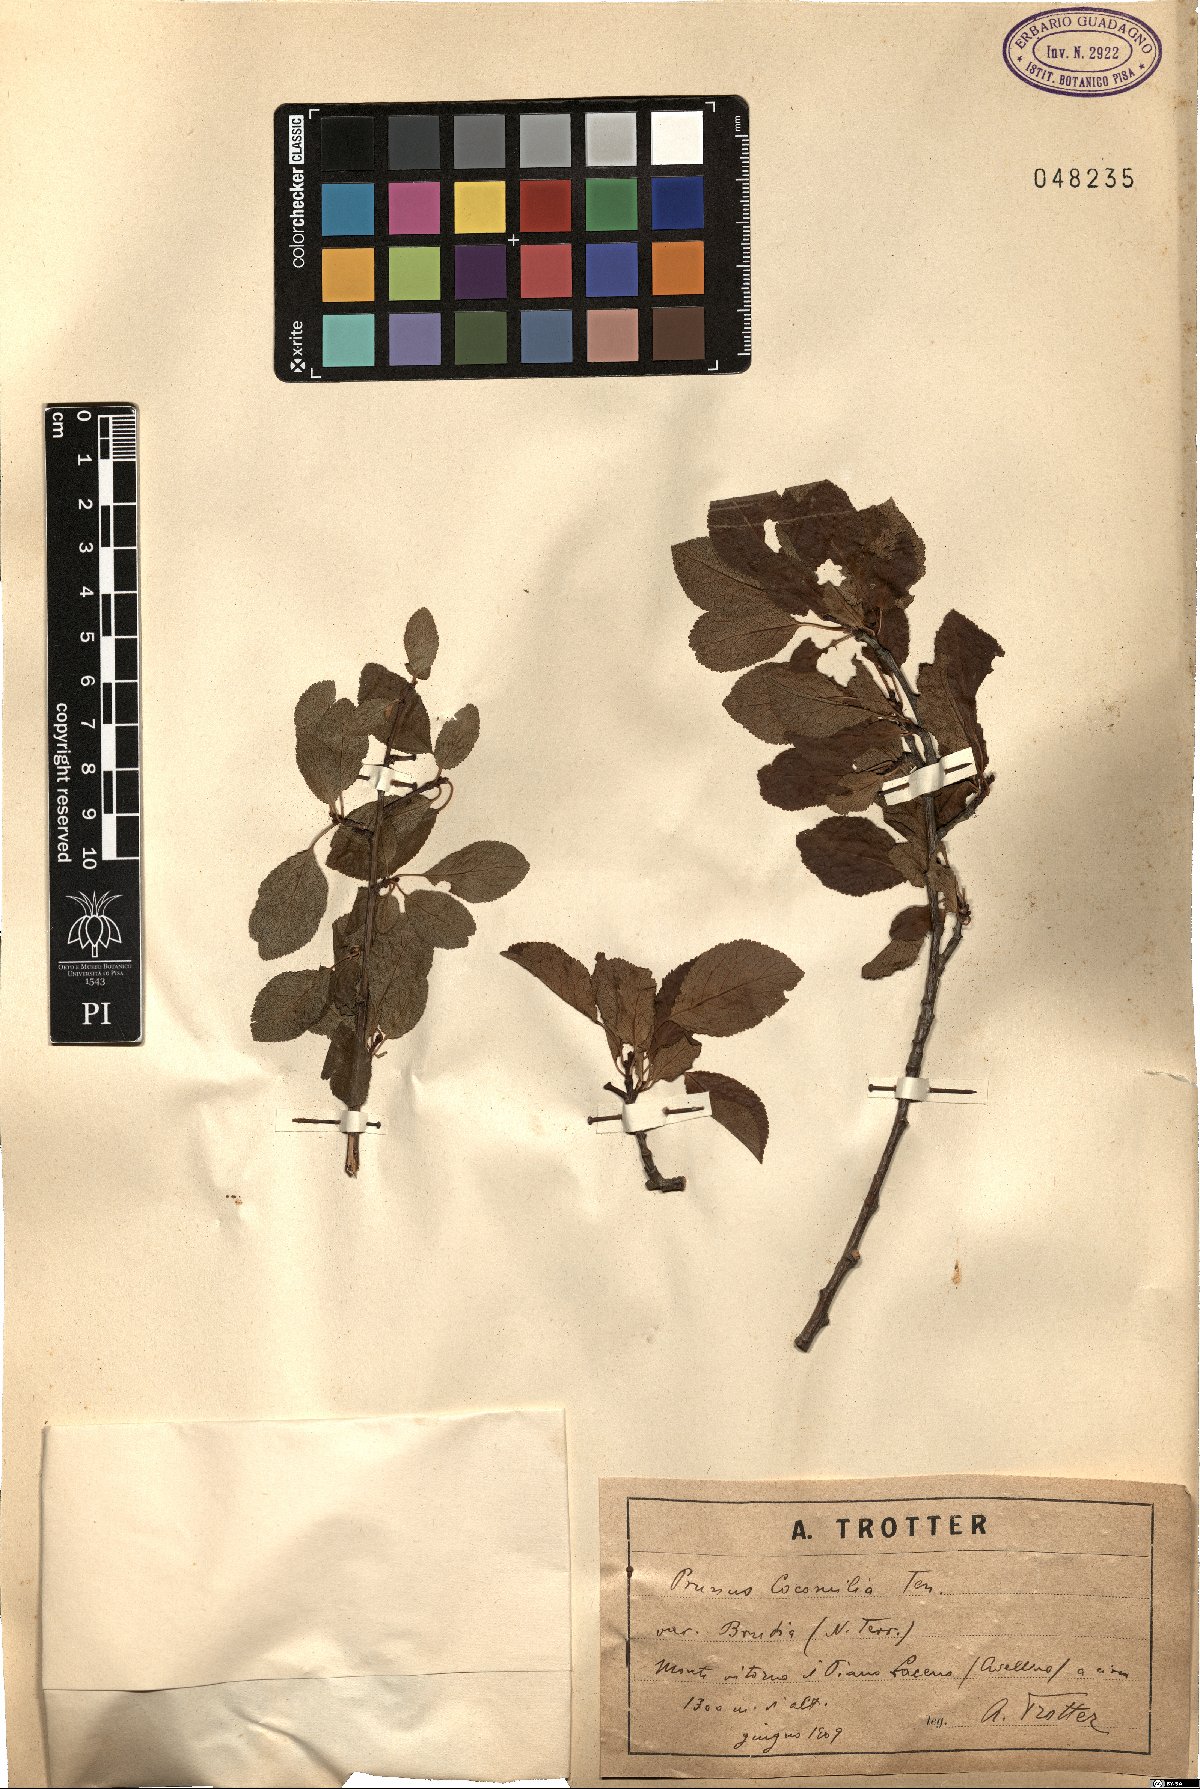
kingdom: Plantae
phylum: Tracheophyta
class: Magnoliopsida
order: Rosales
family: Rosaceae
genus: Prunus
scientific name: Prunus cocomilia
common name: Italian plum
